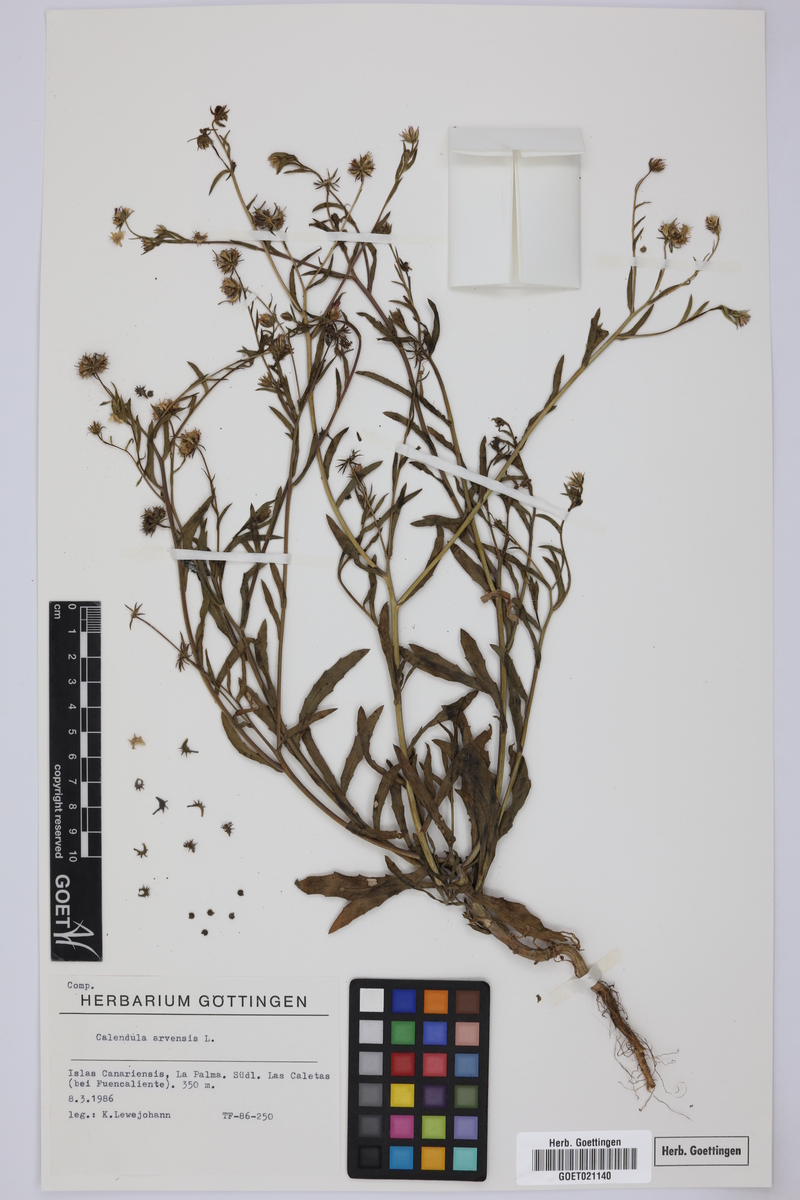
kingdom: Plantae
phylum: Tracheophyta
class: Magnoliopsida
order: Asterales
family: Asteraceae
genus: Calendula
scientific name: Calendula arvensis
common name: Field marigold
